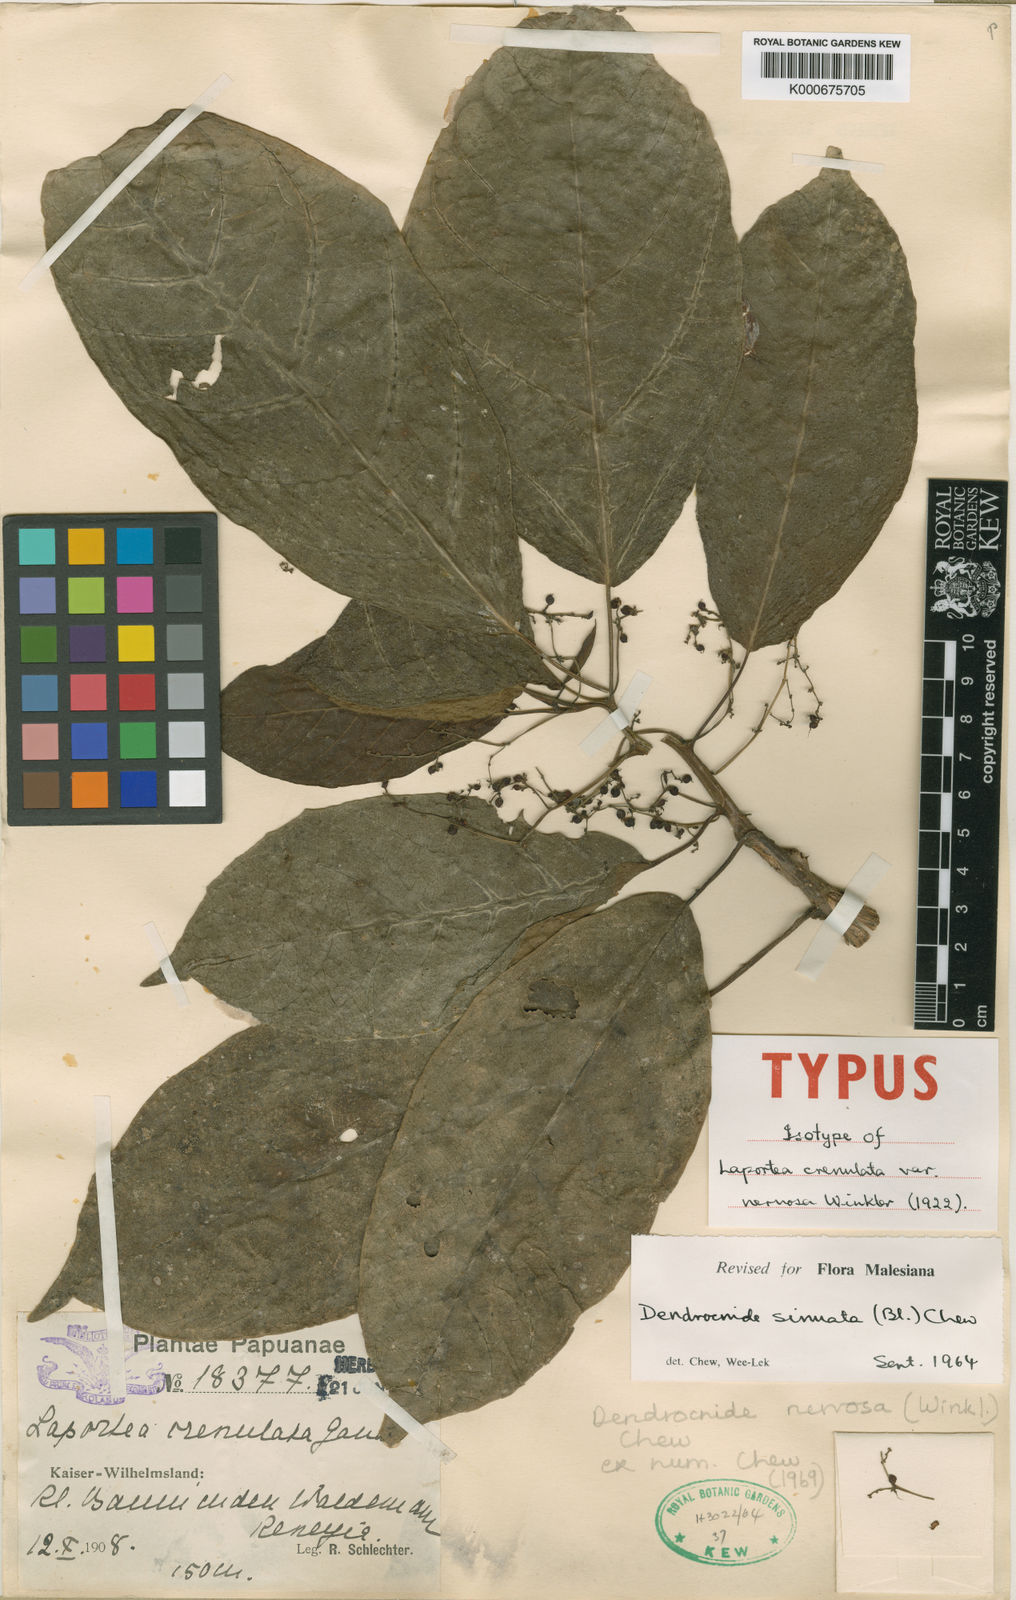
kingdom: Plantae
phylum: Tracheophyta
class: Magnoliopsida
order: Rosales
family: Urticaceae
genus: Dendrocnide
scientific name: Dendrocnide nervosa
